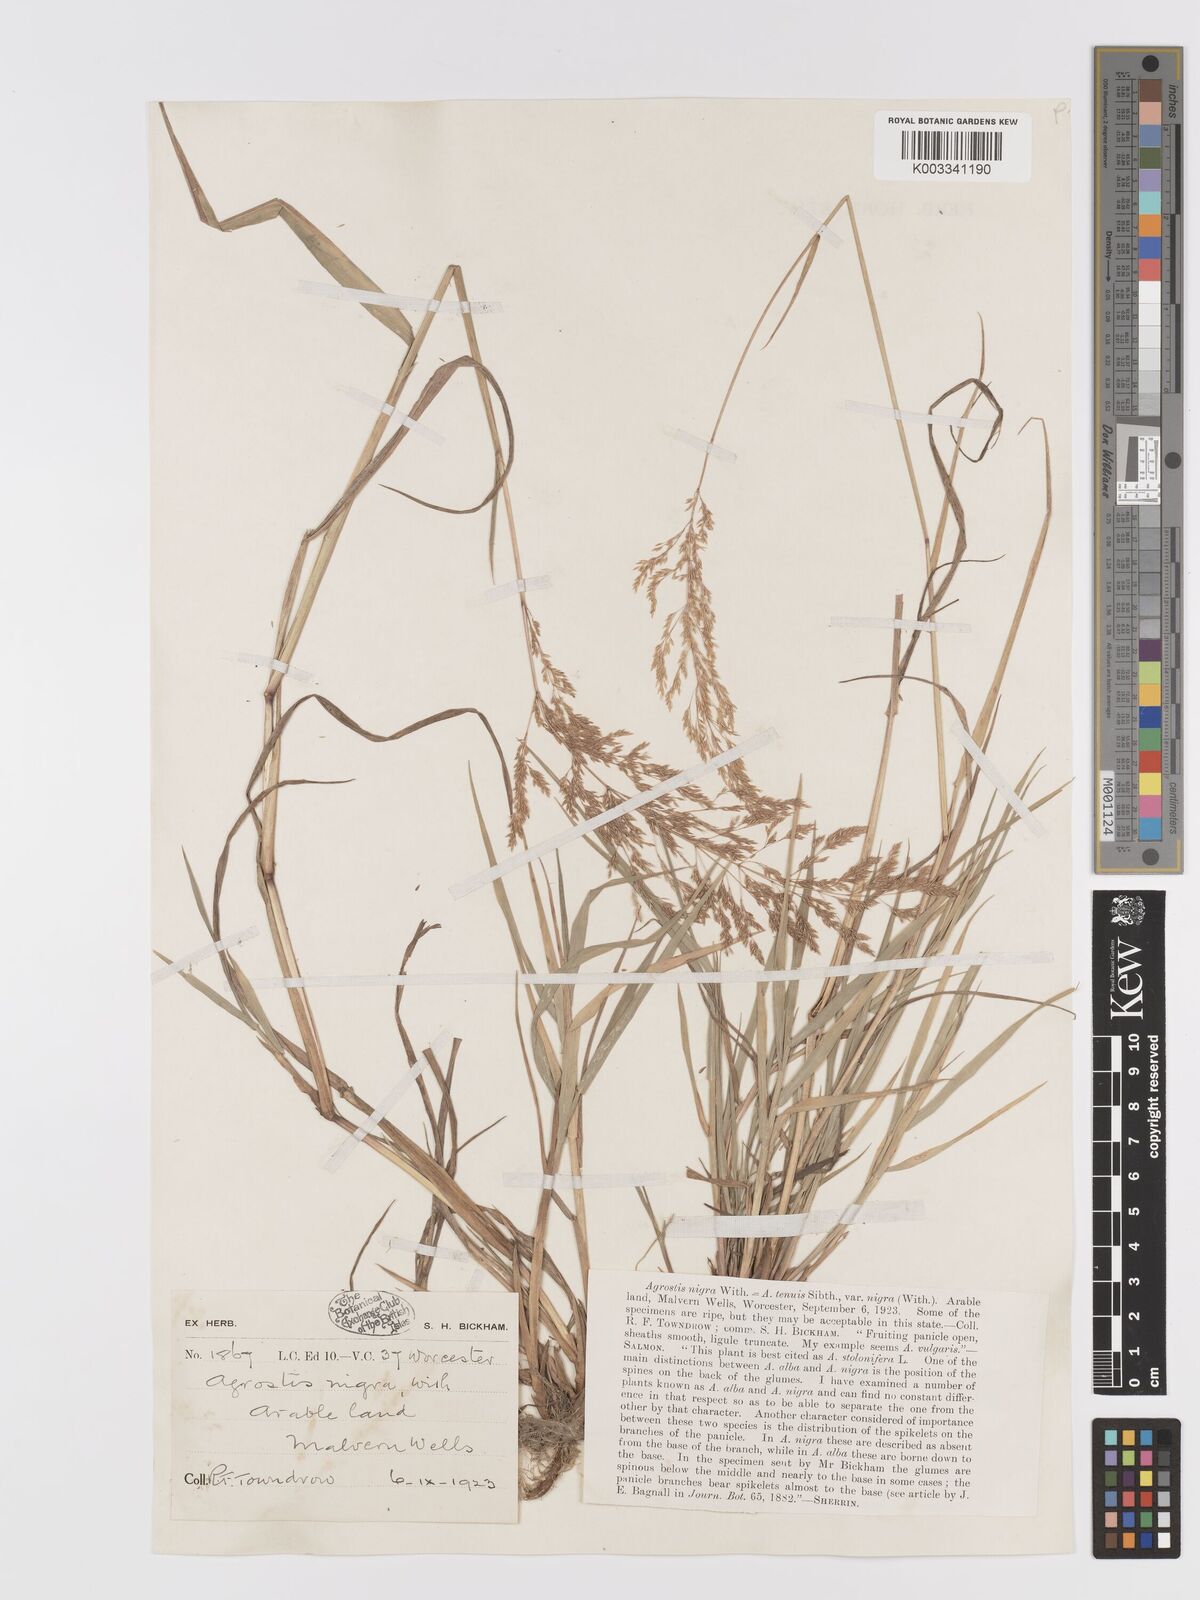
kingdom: Plantae
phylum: Tracheophyta
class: Liliopsida
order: Poales
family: Poaceae
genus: Agrostis
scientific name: Agrostis gigantea
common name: Black bent
